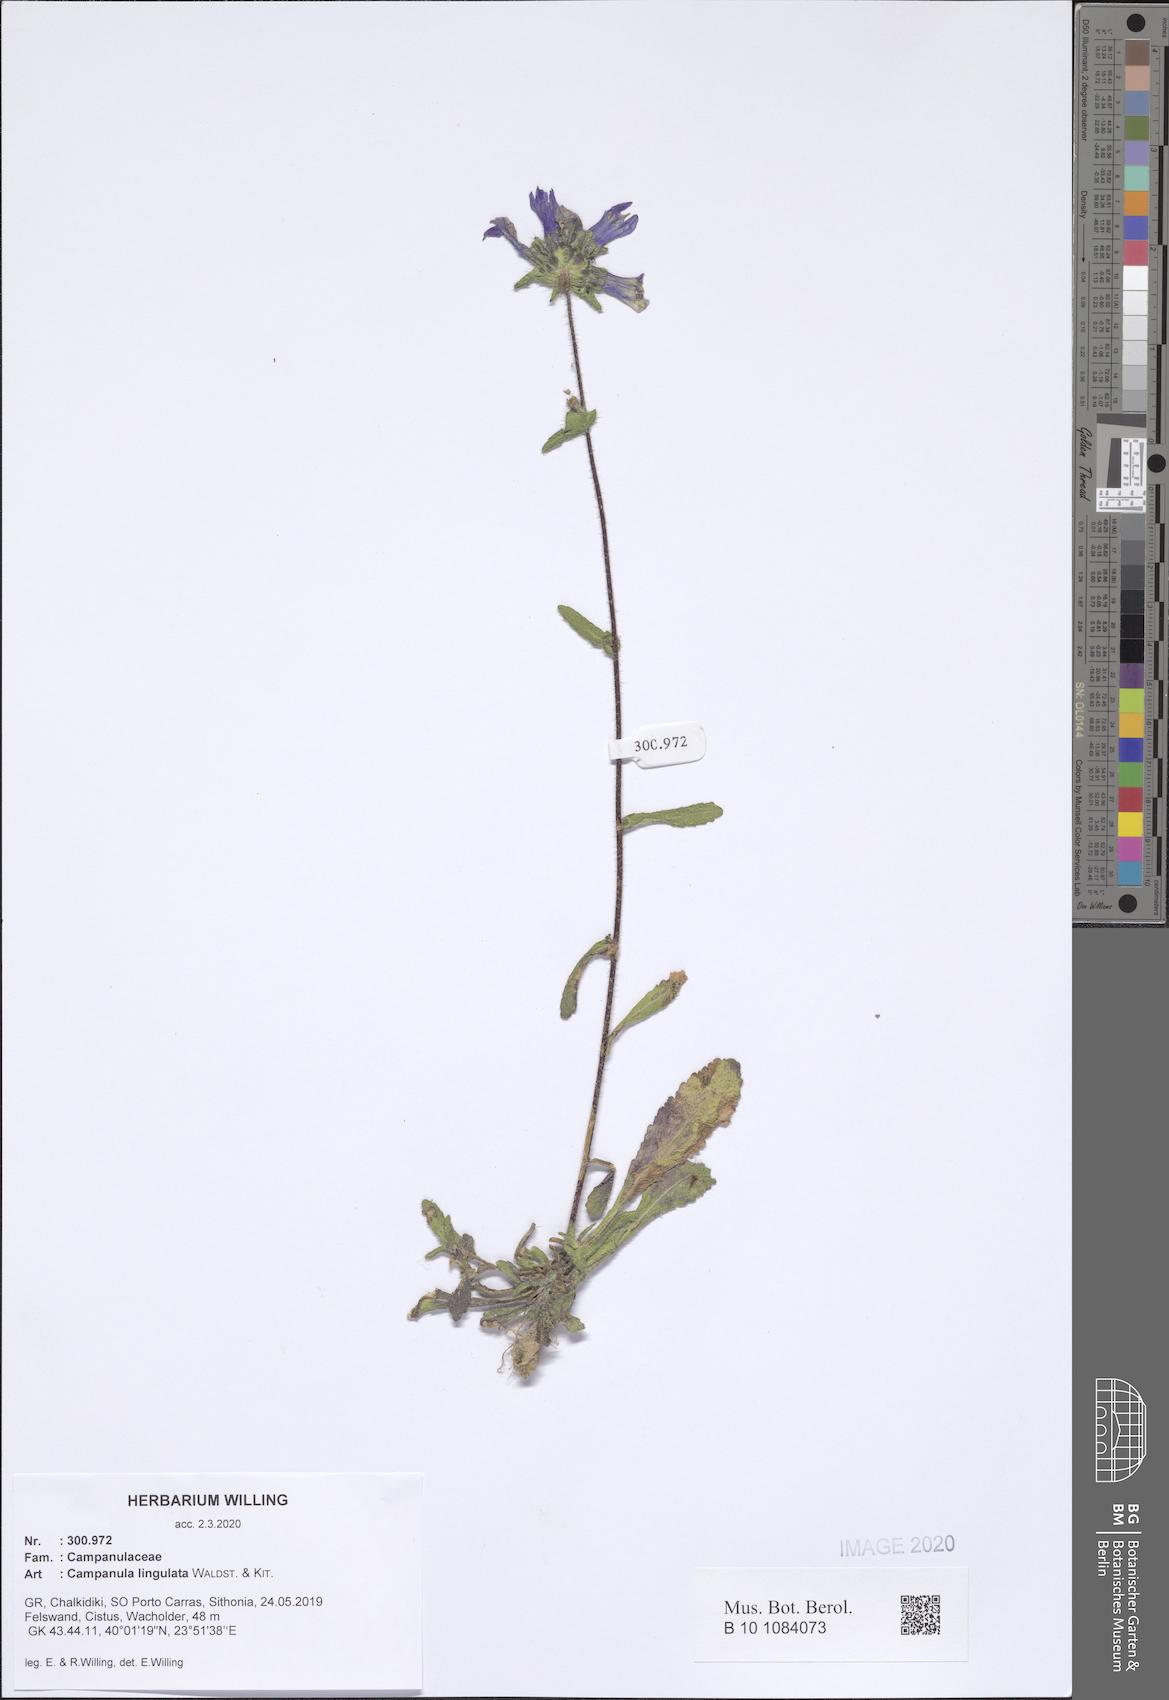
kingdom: Plantae
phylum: Tracheophyta
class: Magnoliopsida
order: Asterales
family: Campanulaceae
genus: Campanula
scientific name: Campanula lingulata
